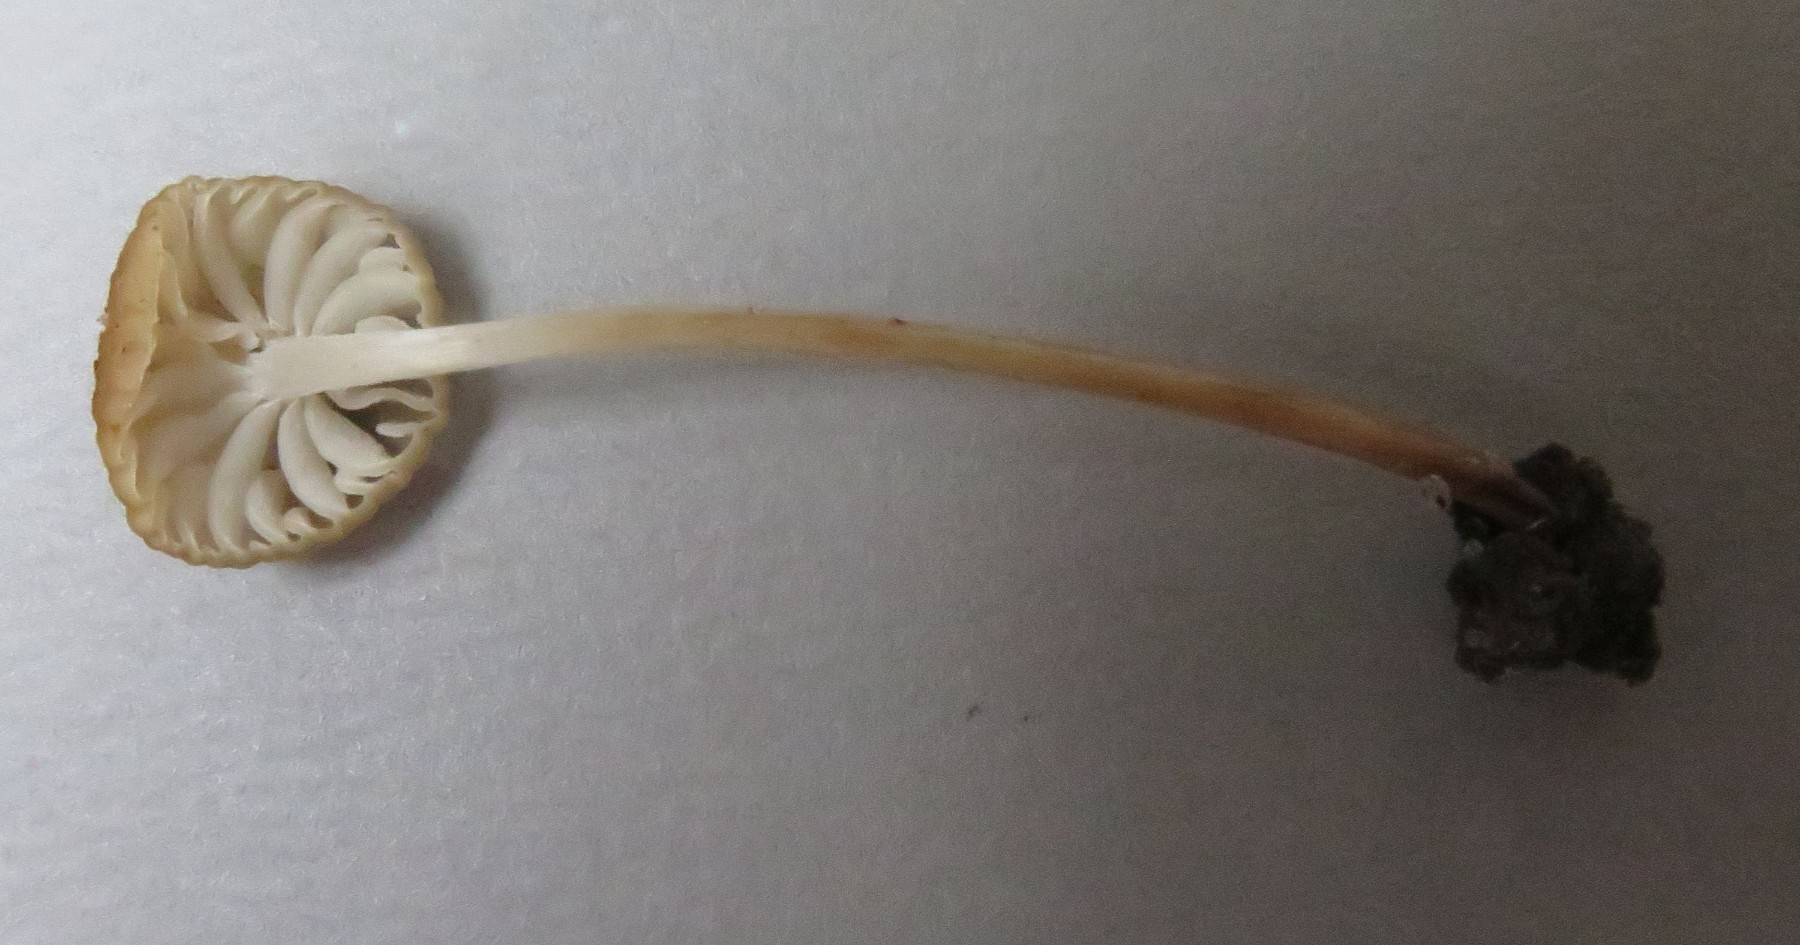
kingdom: Fungi
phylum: Basidiomycota
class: Agaricomycetes
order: Agaricales
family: Physalacriaceae
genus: Hymenopellis
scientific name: Hymenopellis radicata
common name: almindelig pælerodshat
